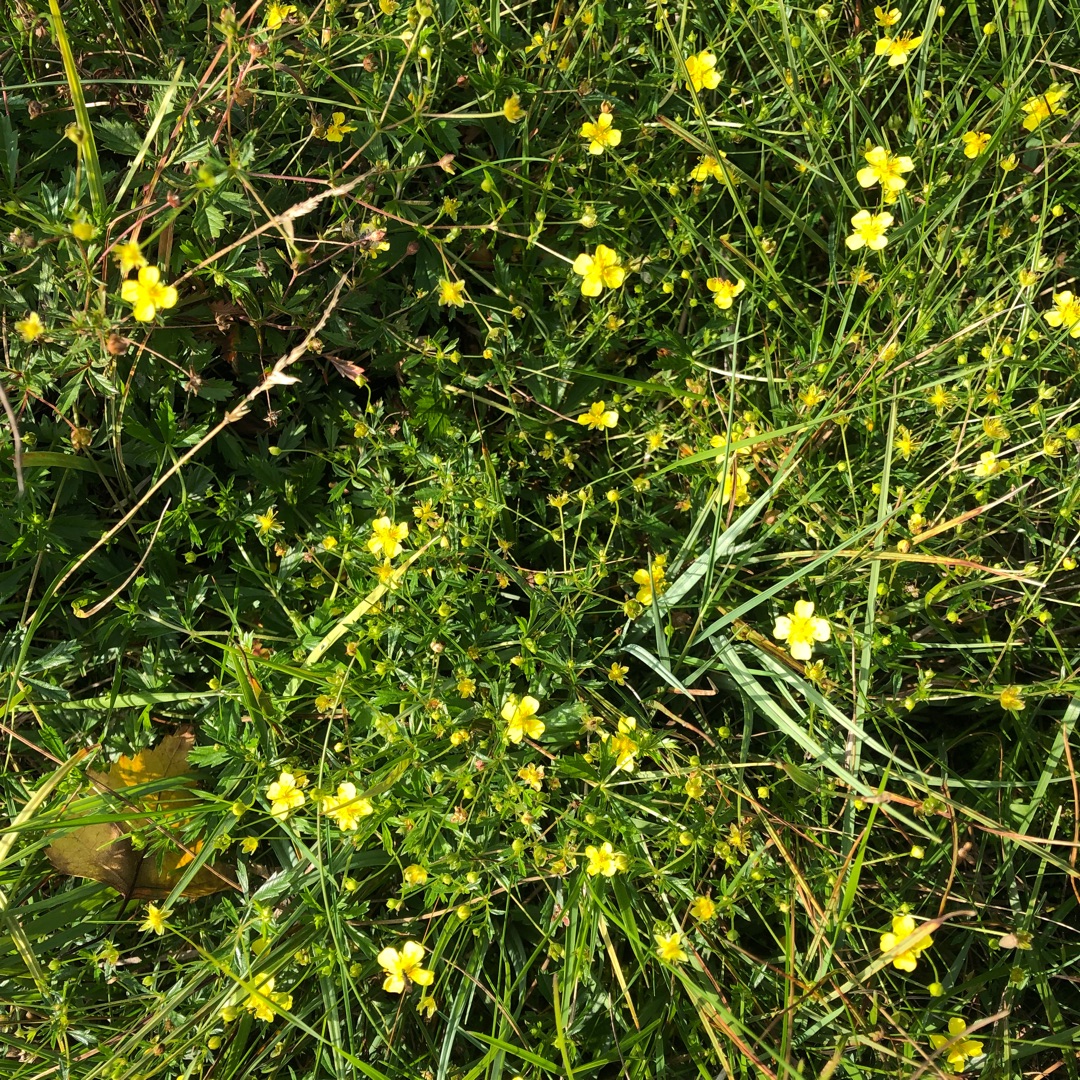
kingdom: Plantae
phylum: Tracheophyta
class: Magnoliopsida
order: Rosales
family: Rosaceae
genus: Potentilla
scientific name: Potentilla erecta
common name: Tormentil
